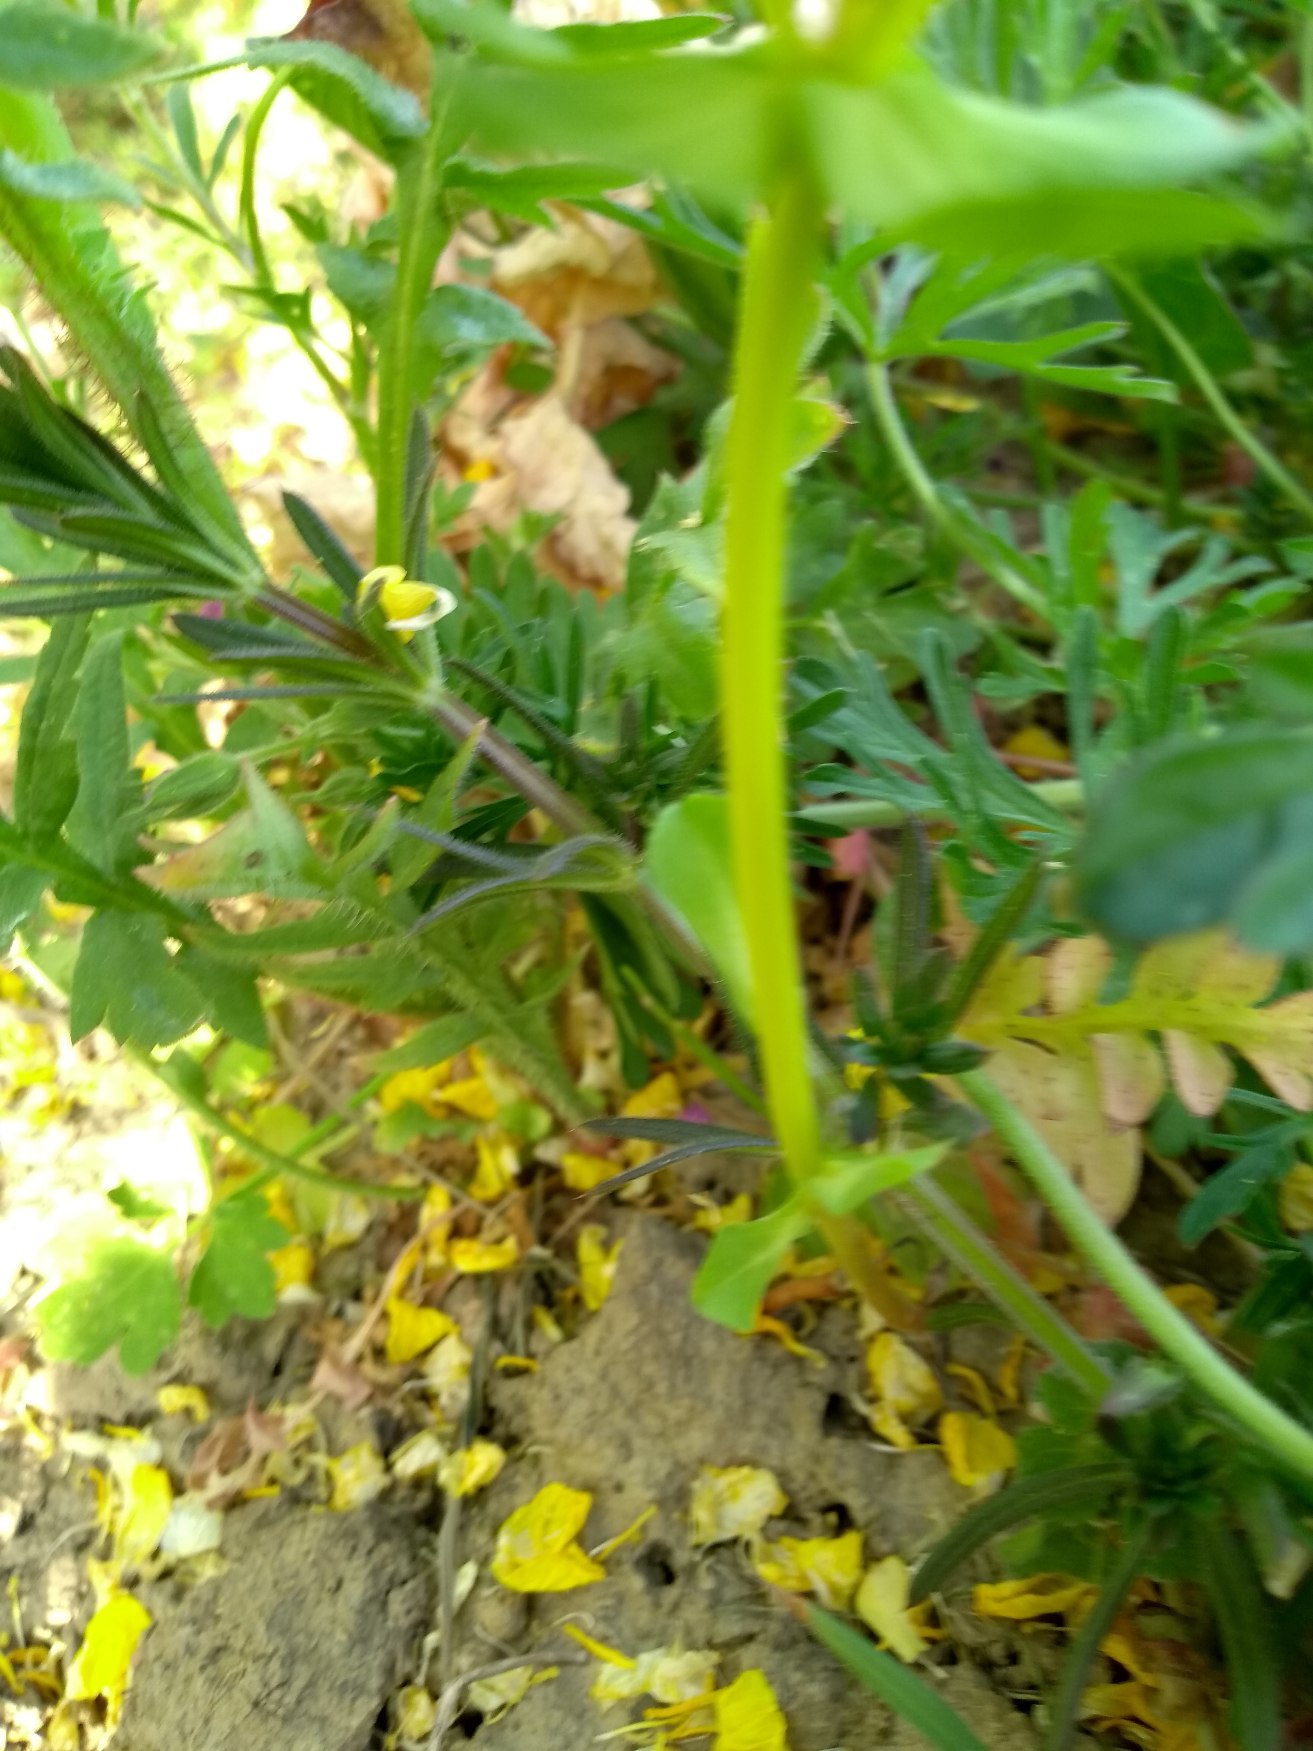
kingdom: Plantae
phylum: Tracheophyta
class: Magnoliopsida
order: Malpighiales
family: Euphorbiaceae
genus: Euphorbia
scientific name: Euphorbia helioscopia
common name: Skærm-vortemælk
